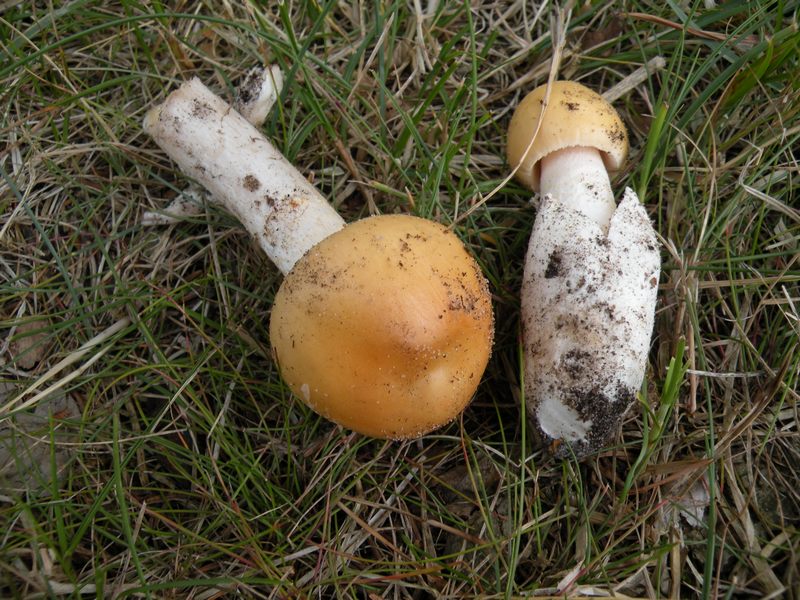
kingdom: Fungi
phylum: Basidiomycota
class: Agaricomycetes
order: Agaricales
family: Amanitaceae
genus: Amanita
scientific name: Amanita contui
